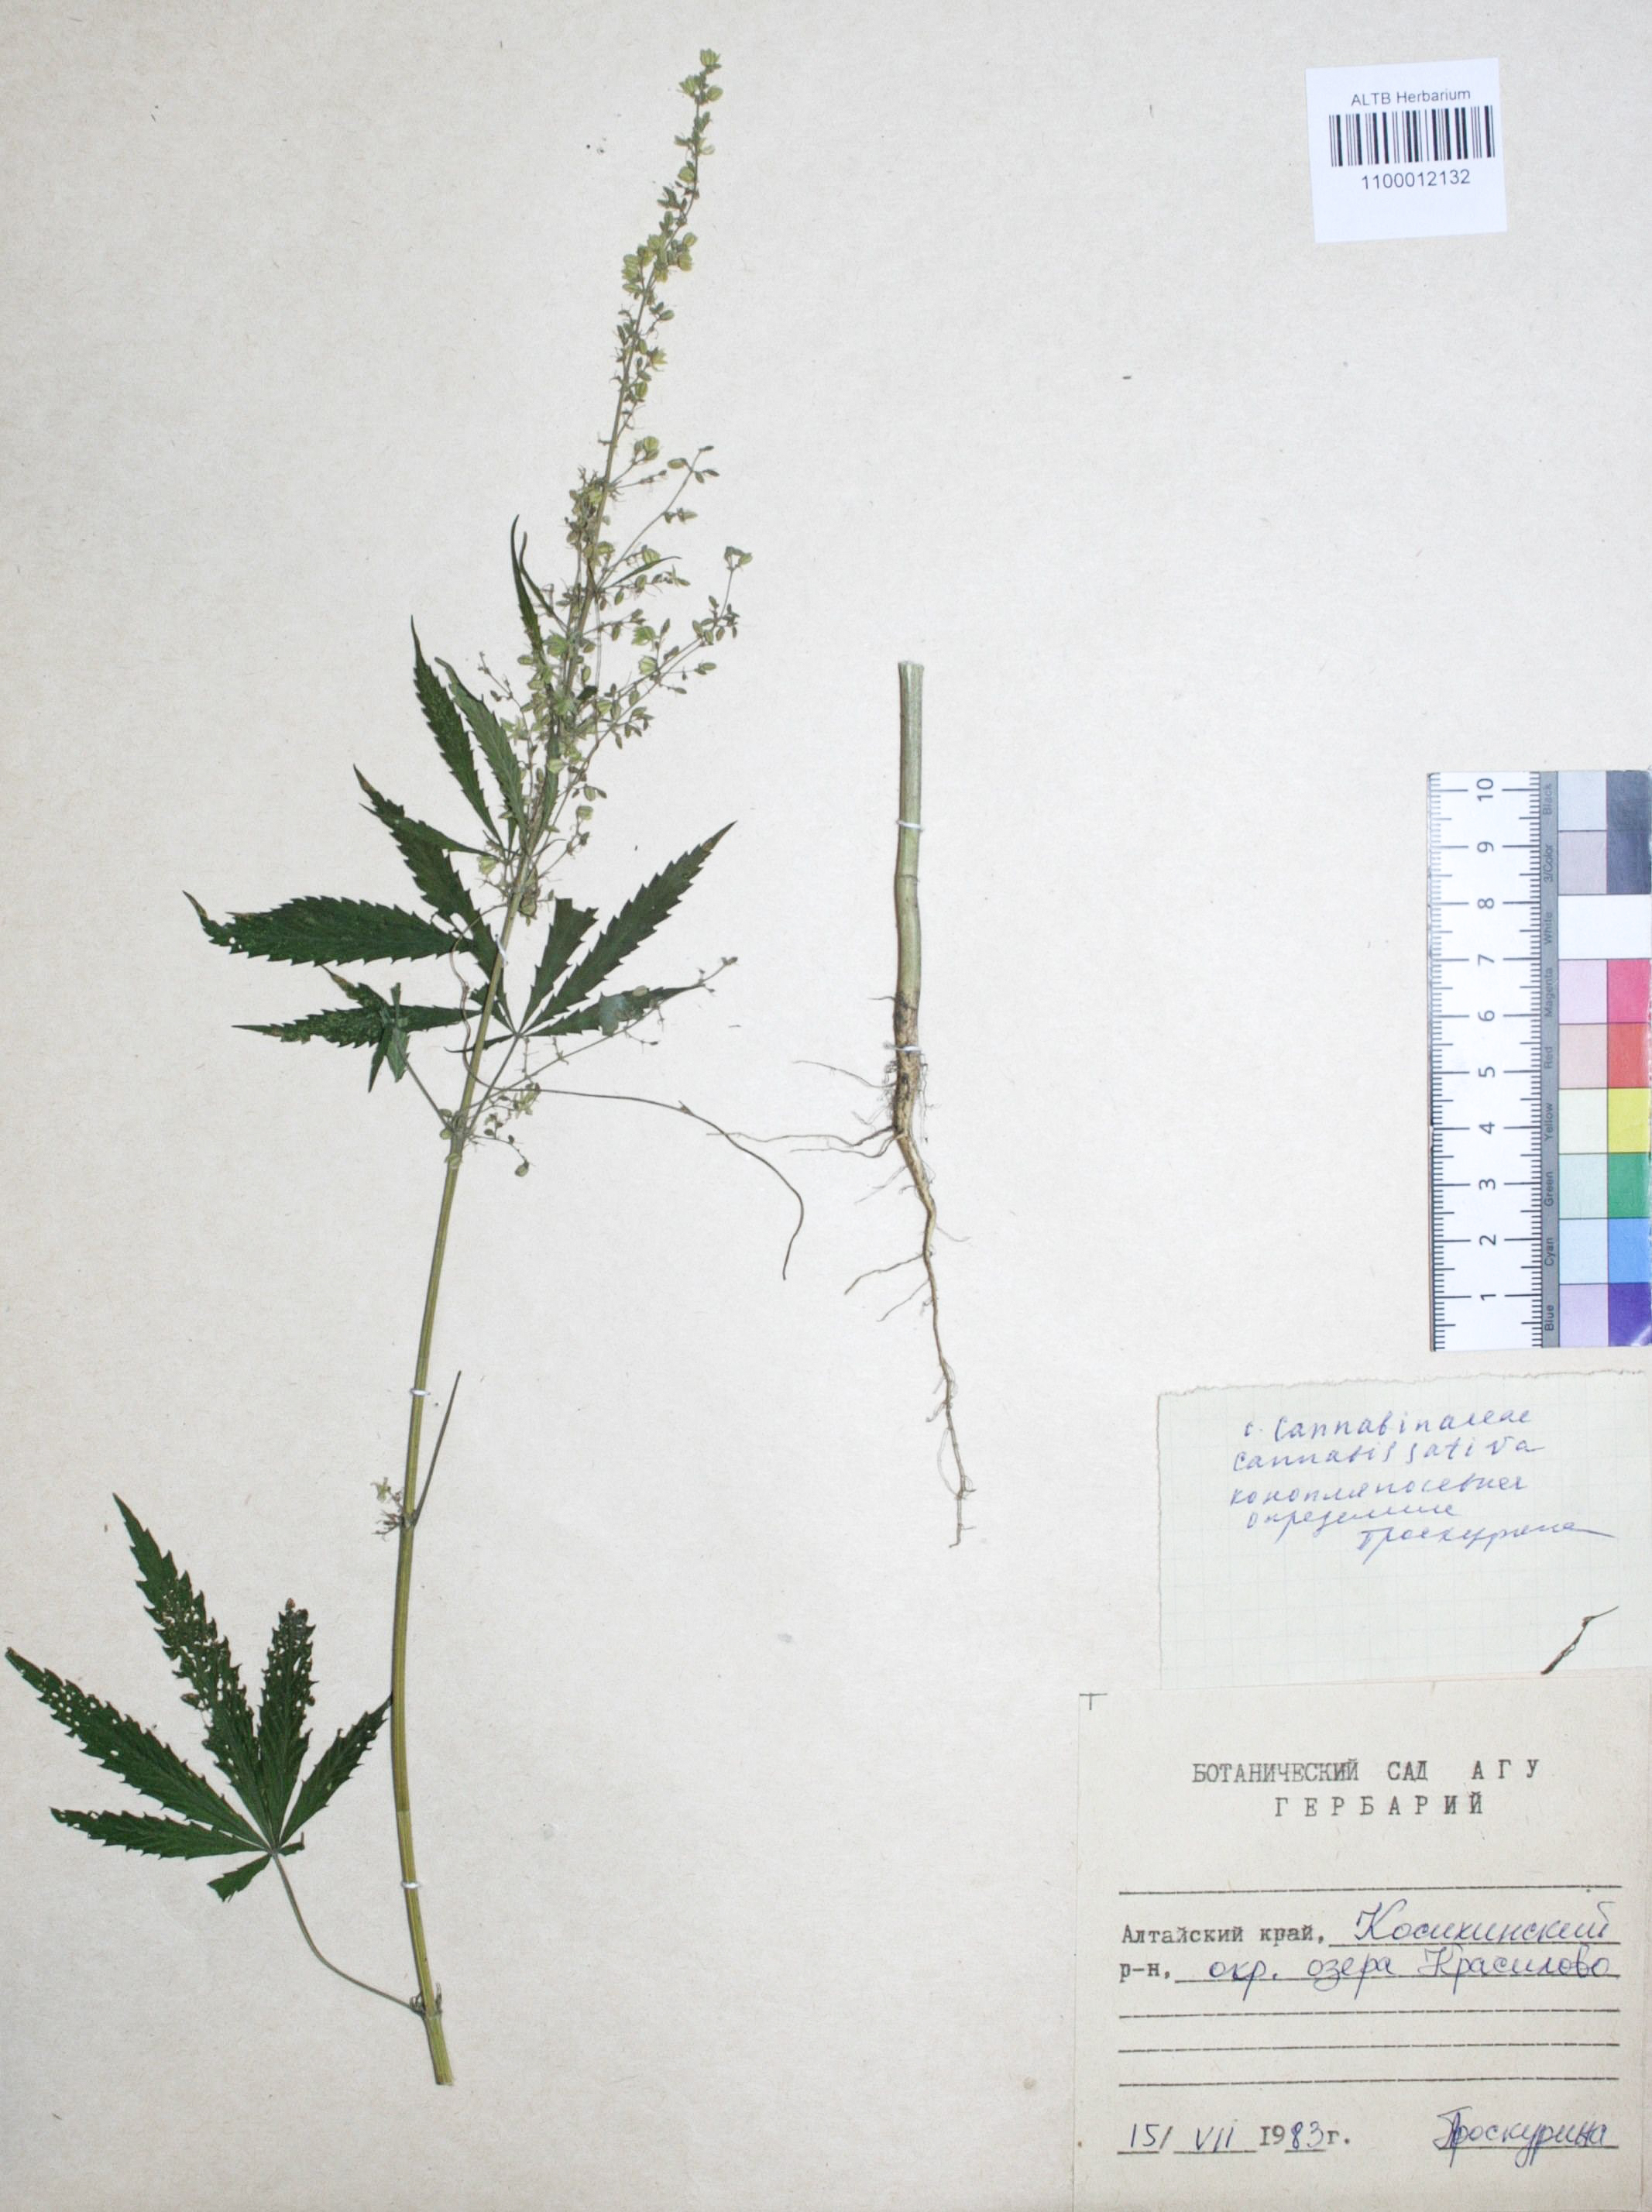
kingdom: Plantae
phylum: Tracheophyta
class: Magnoliopsida
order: Rosales
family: Cannabaceae
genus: Cannabis
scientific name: Cannabis sativa
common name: Hemp
